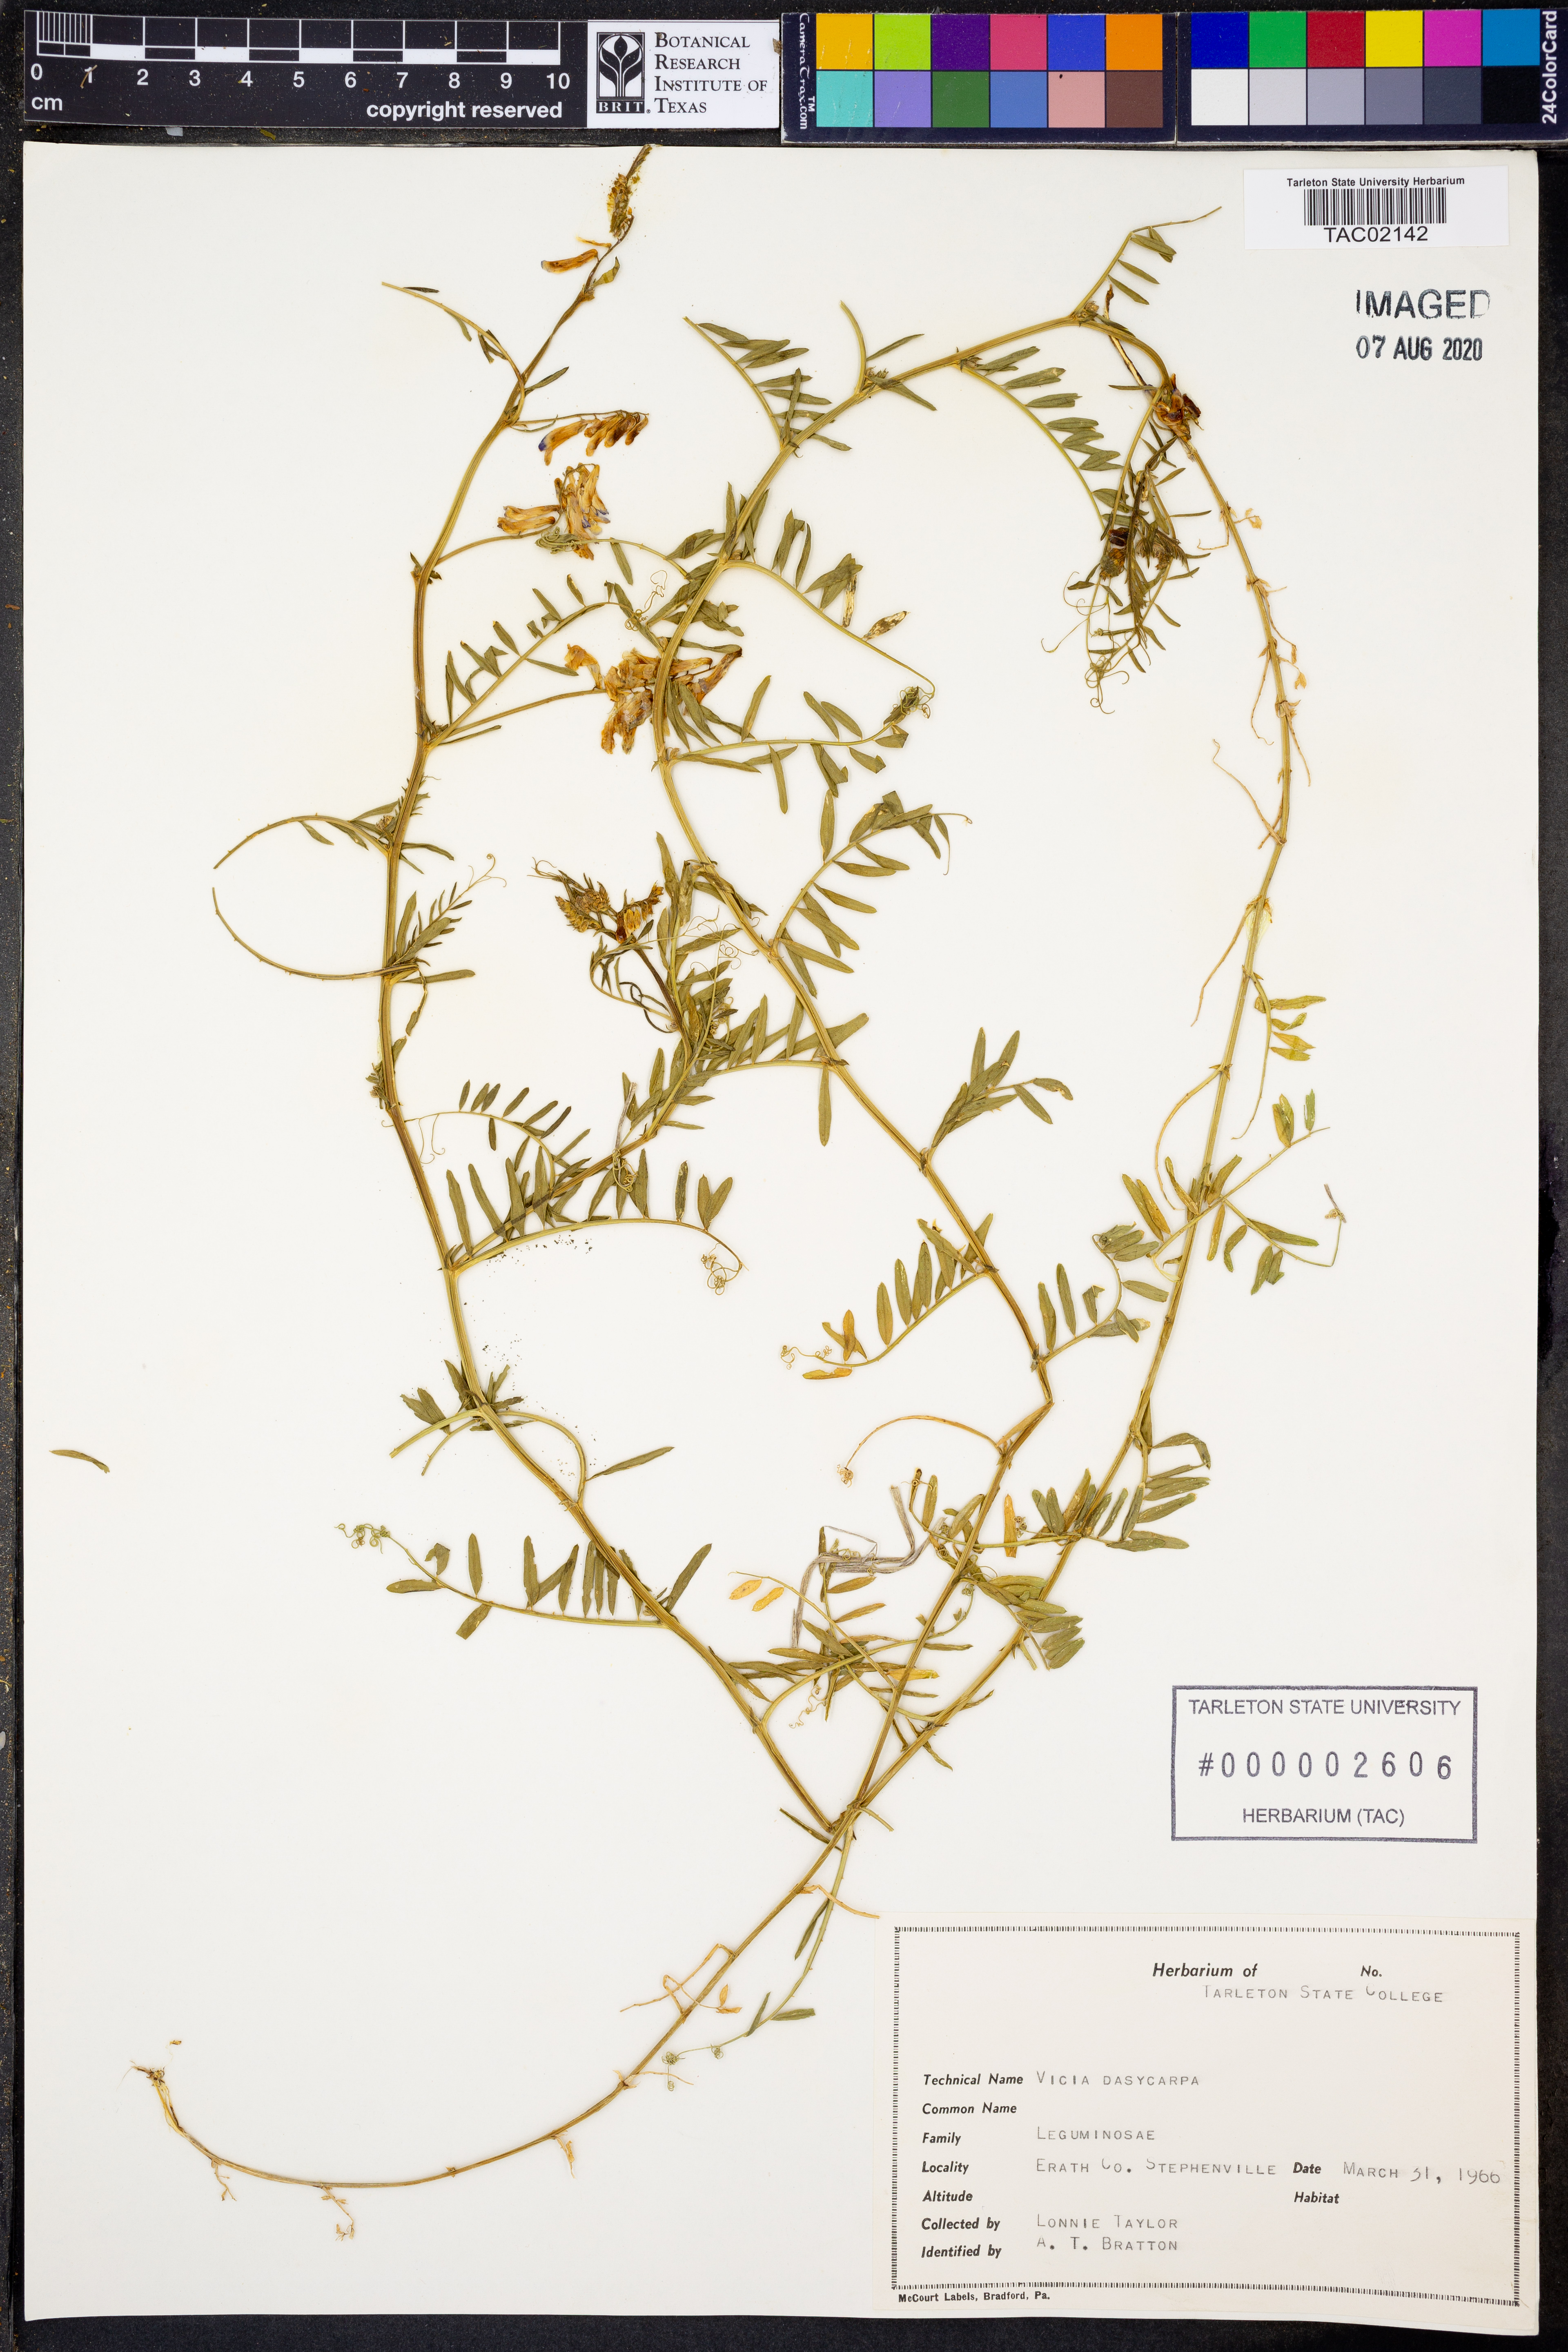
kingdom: Plantae
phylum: Tracheophyta
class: Magnoliopsida
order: Fabales
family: Fabaceae
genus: Vicia
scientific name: Vicia villosa
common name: Fodder vetch
